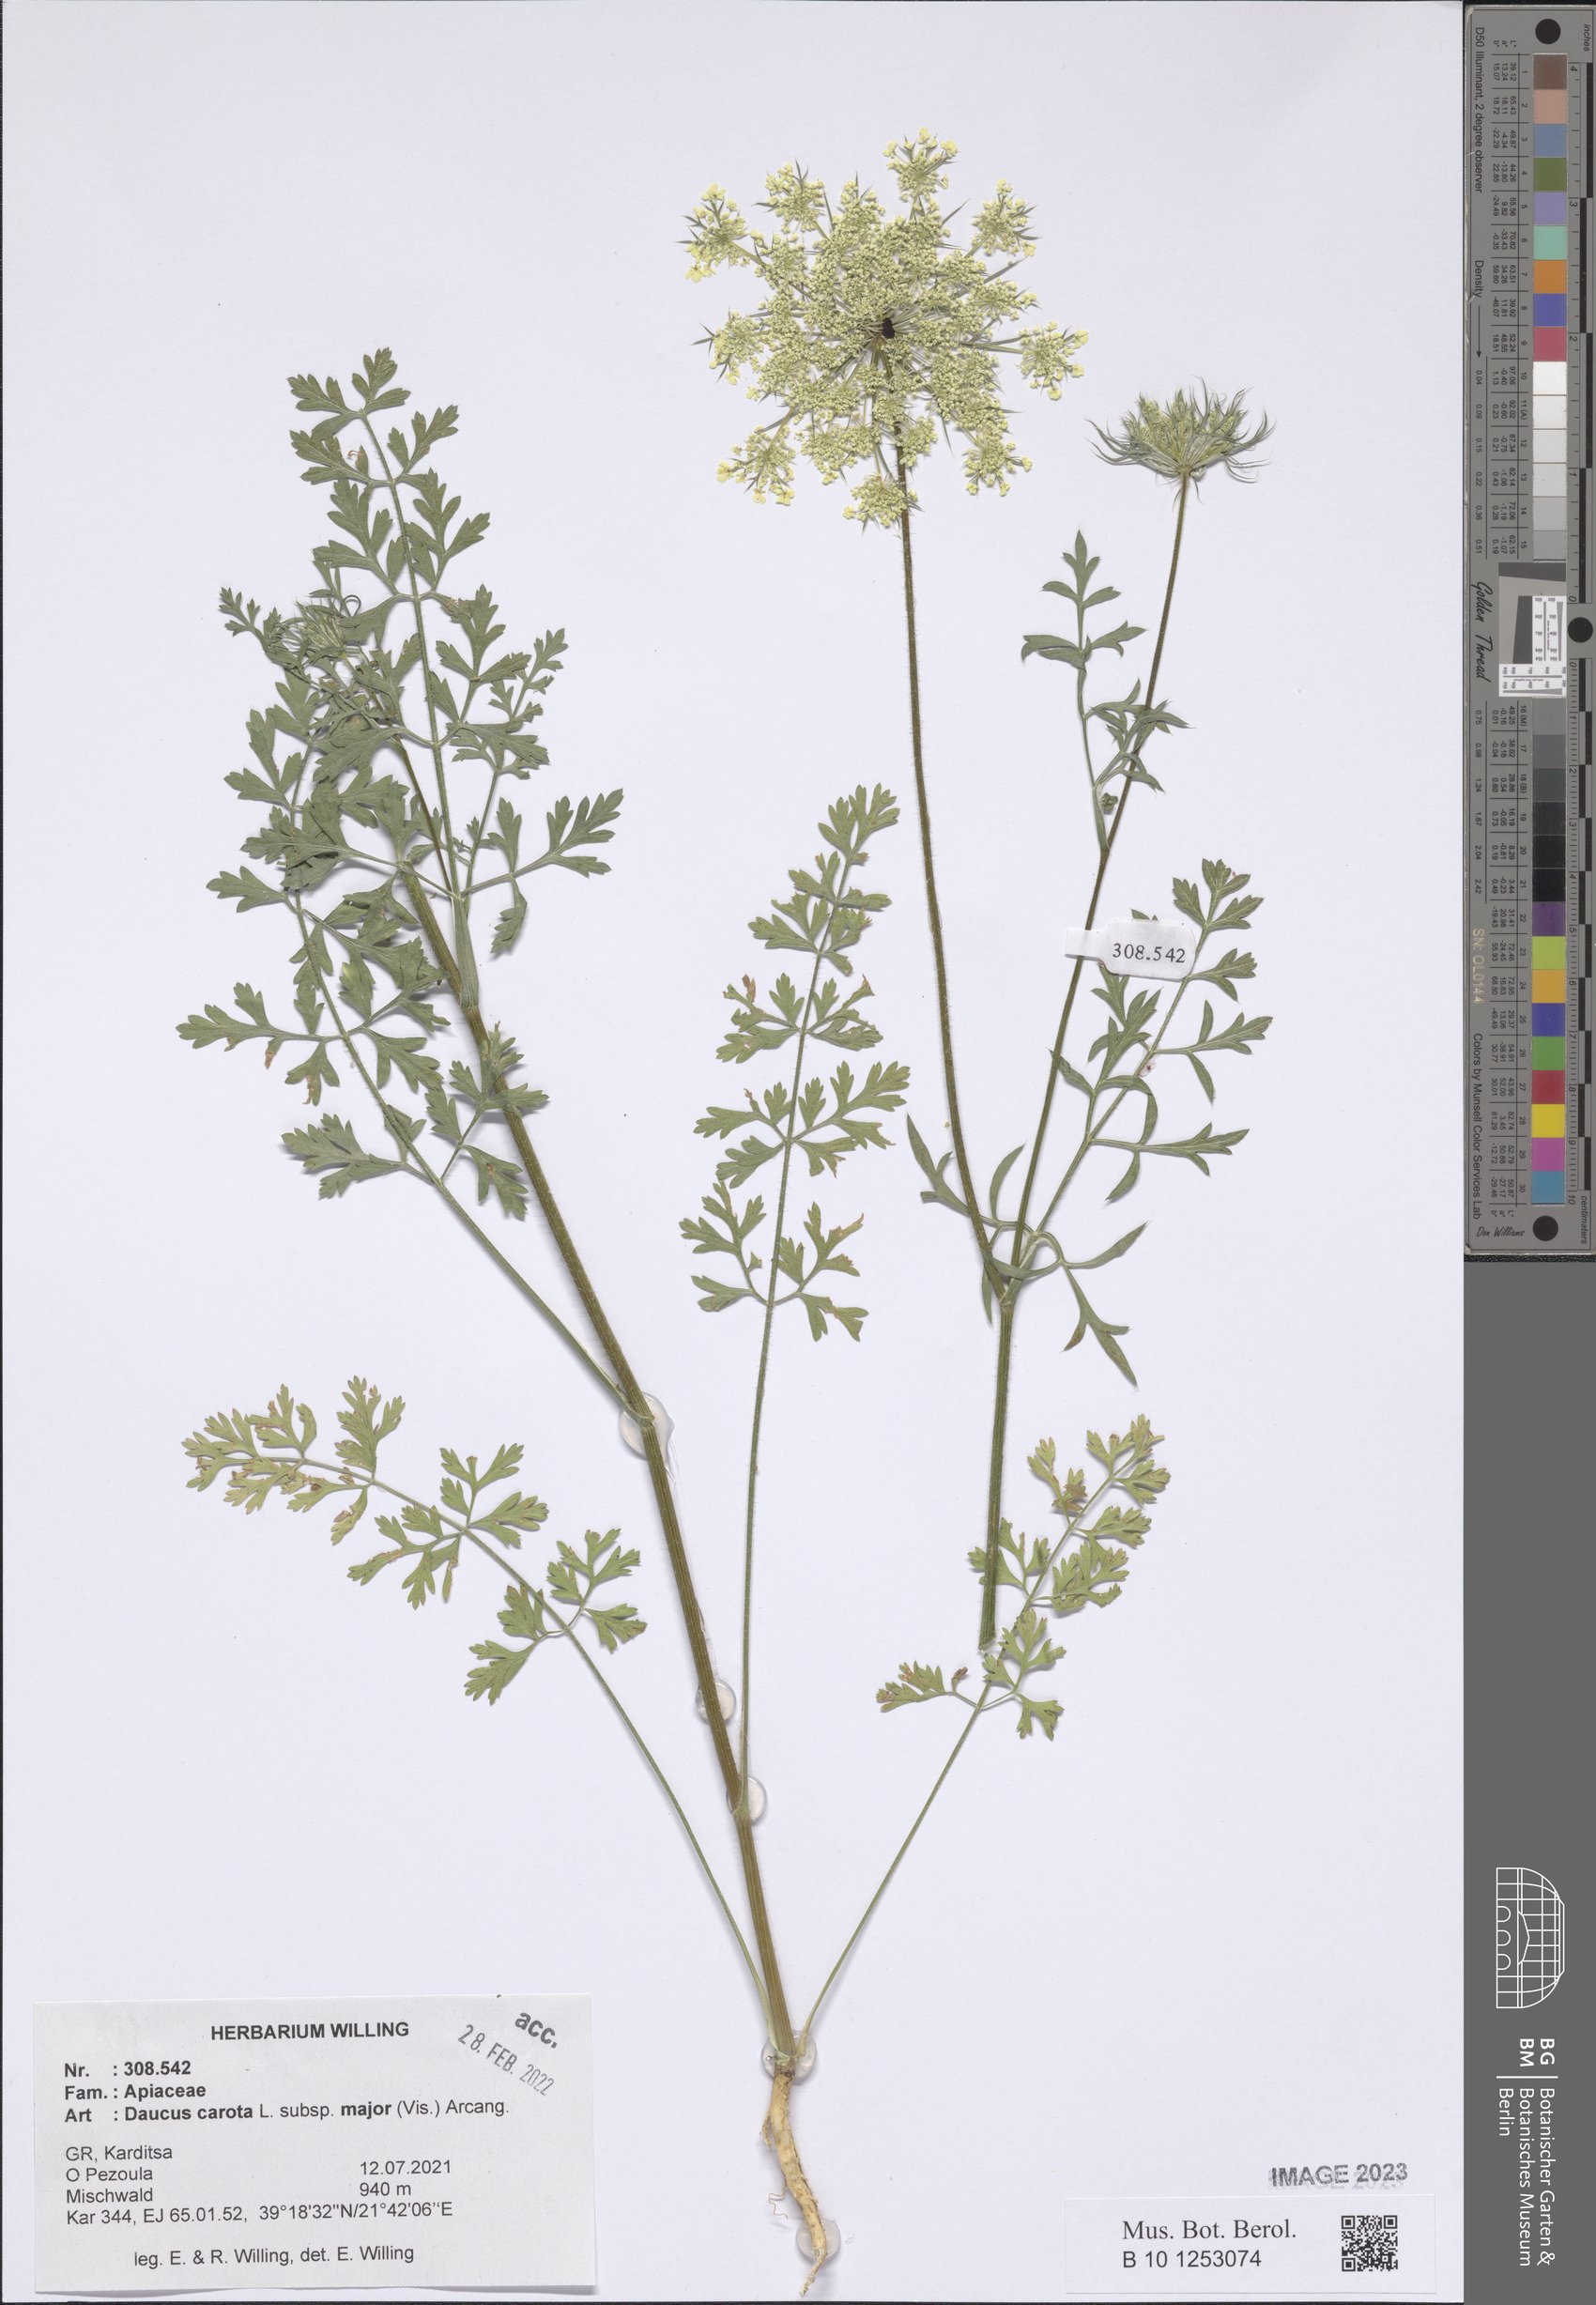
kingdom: Plantae
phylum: Tracheophyta
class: Magnoliopsida
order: Apiales
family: Apiaceae
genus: Daucus
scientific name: Daucus carota
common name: Wild carrot
